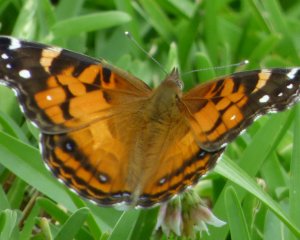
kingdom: Animalia
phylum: Arthropoda
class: Insecta
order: Lepidoptera
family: Nymphalidae
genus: Vanessa
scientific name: Vanessa virginiensis
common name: American Lady
